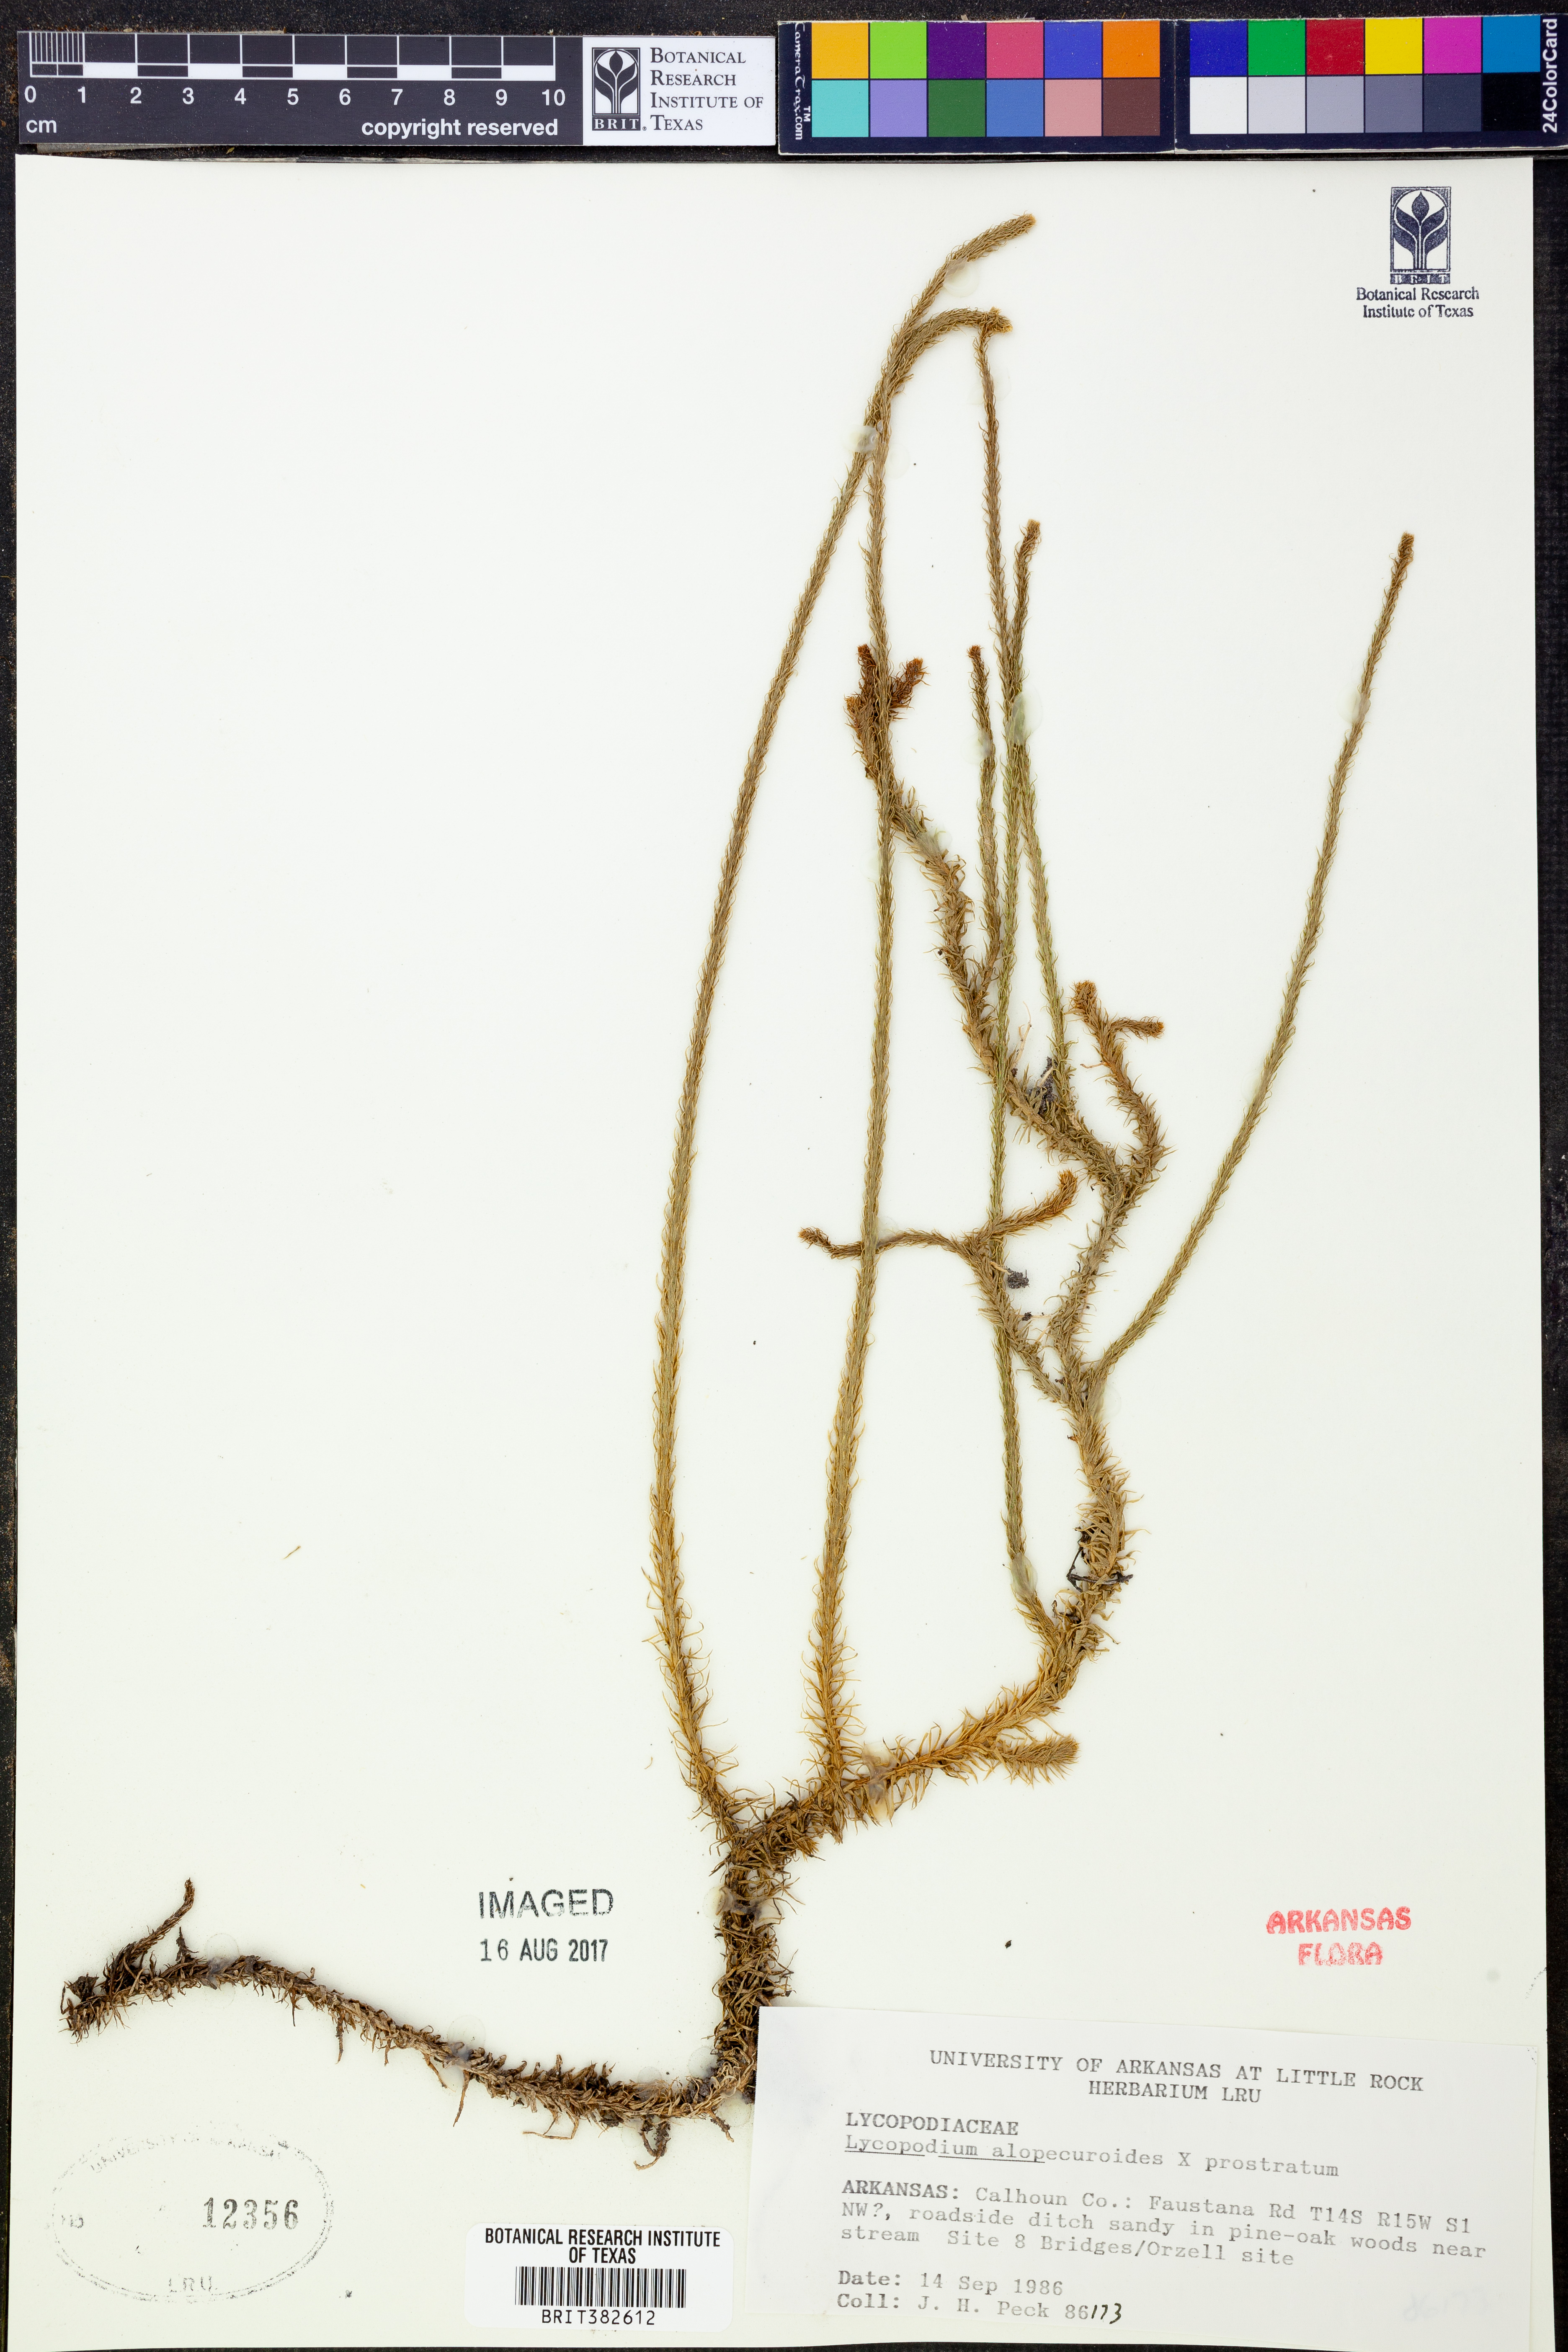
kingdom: Plantae
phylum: Tracheophyta
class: Lycopodiopsida
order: Lycopodiales
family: Lycopodiaceae
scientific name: Lycopodiaceae
